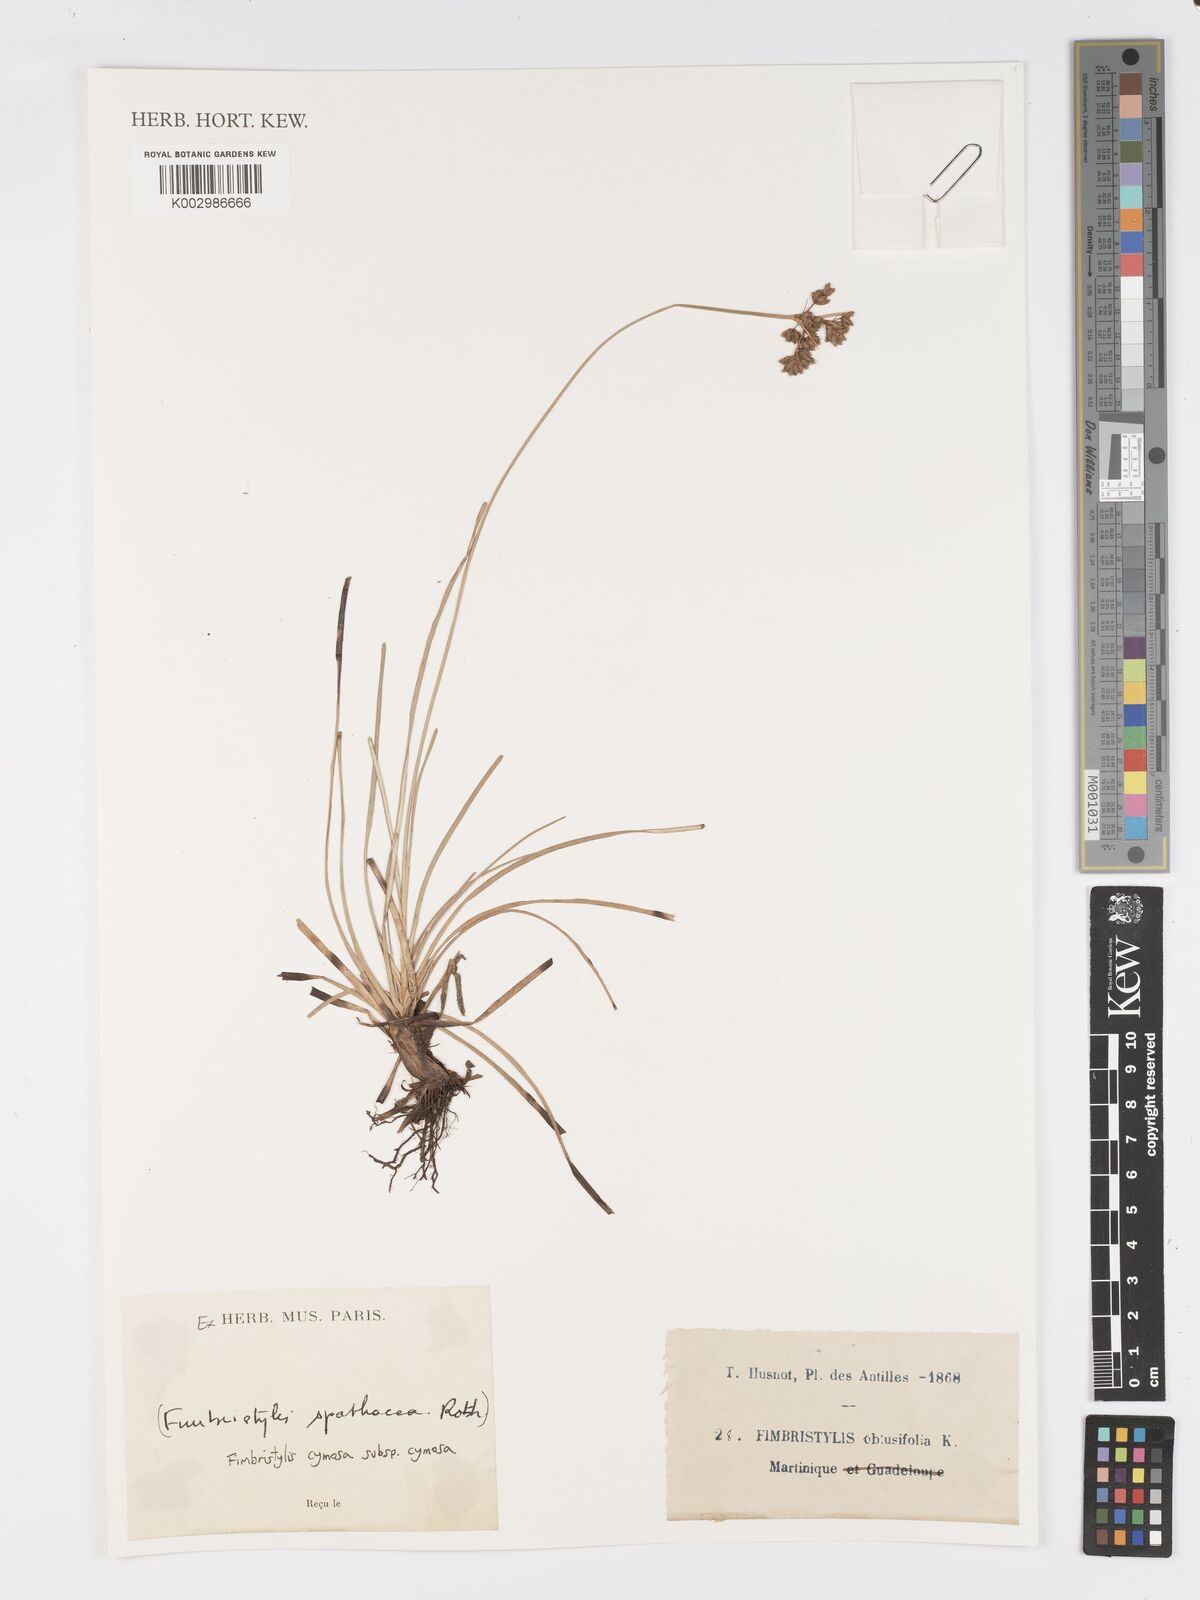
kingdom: Plantae
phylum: Tracheophyta
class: Liliopsida
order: Poales
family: Cyperaceae
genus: Fimbristylis
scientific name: Fimbristylis cymosa
